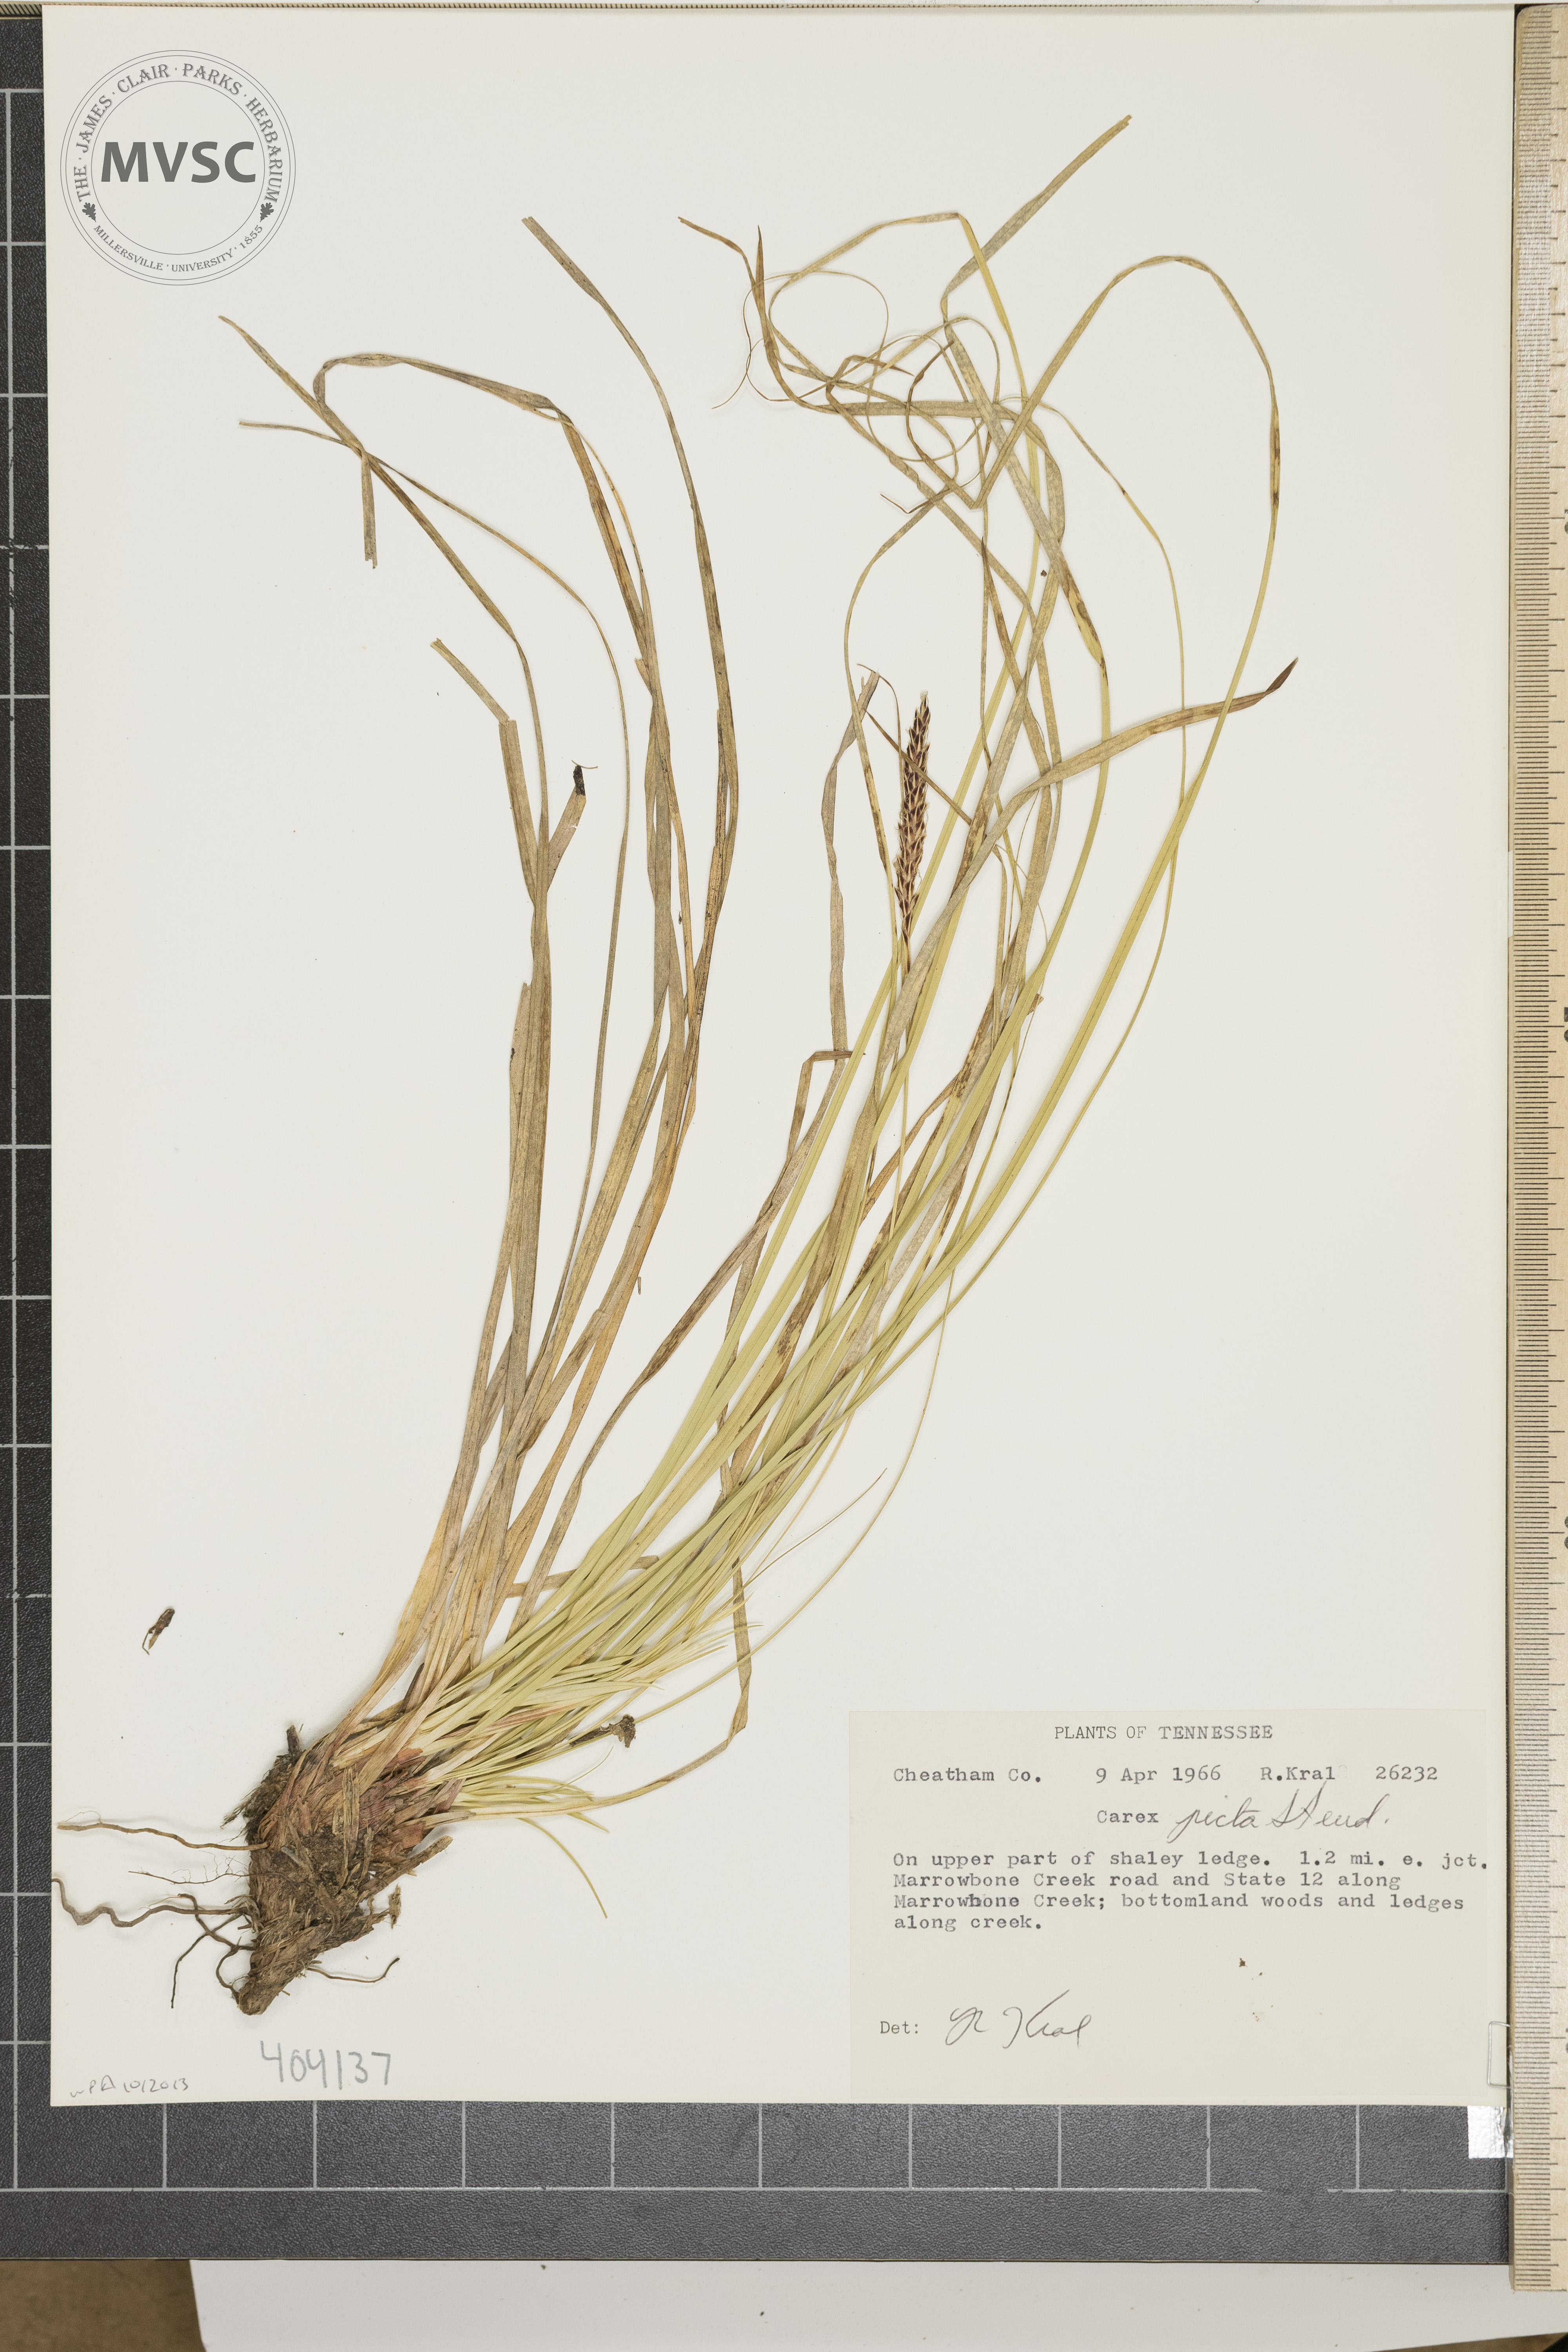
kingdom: Plantae
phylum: Tracheophyta
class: Liliopsida
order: Poales
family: Cyperaceae
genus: Carex
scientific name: Carex picta
